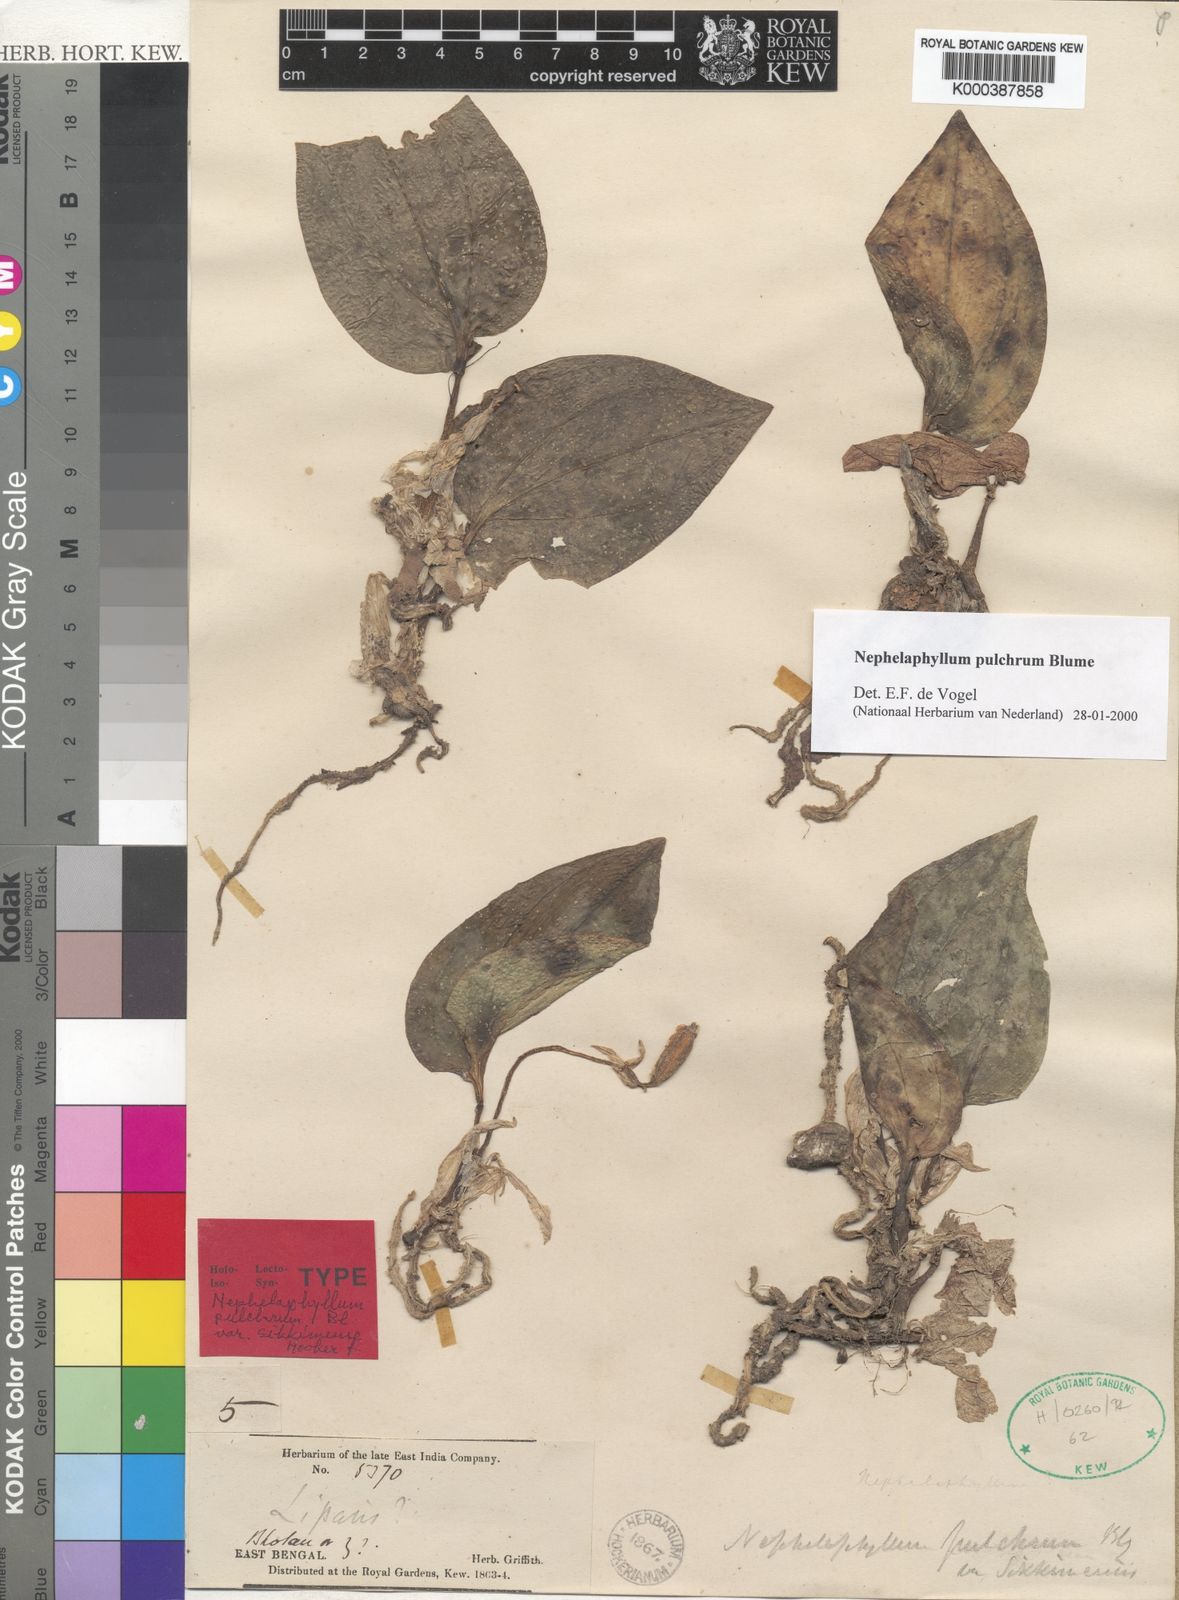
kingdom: Plantae
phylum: Tracheophyta
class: Liliopsida
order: Asparagales
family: Orchidaceae
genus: Nephelaphyllum
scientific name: Nephelaphyllum pulchrum
